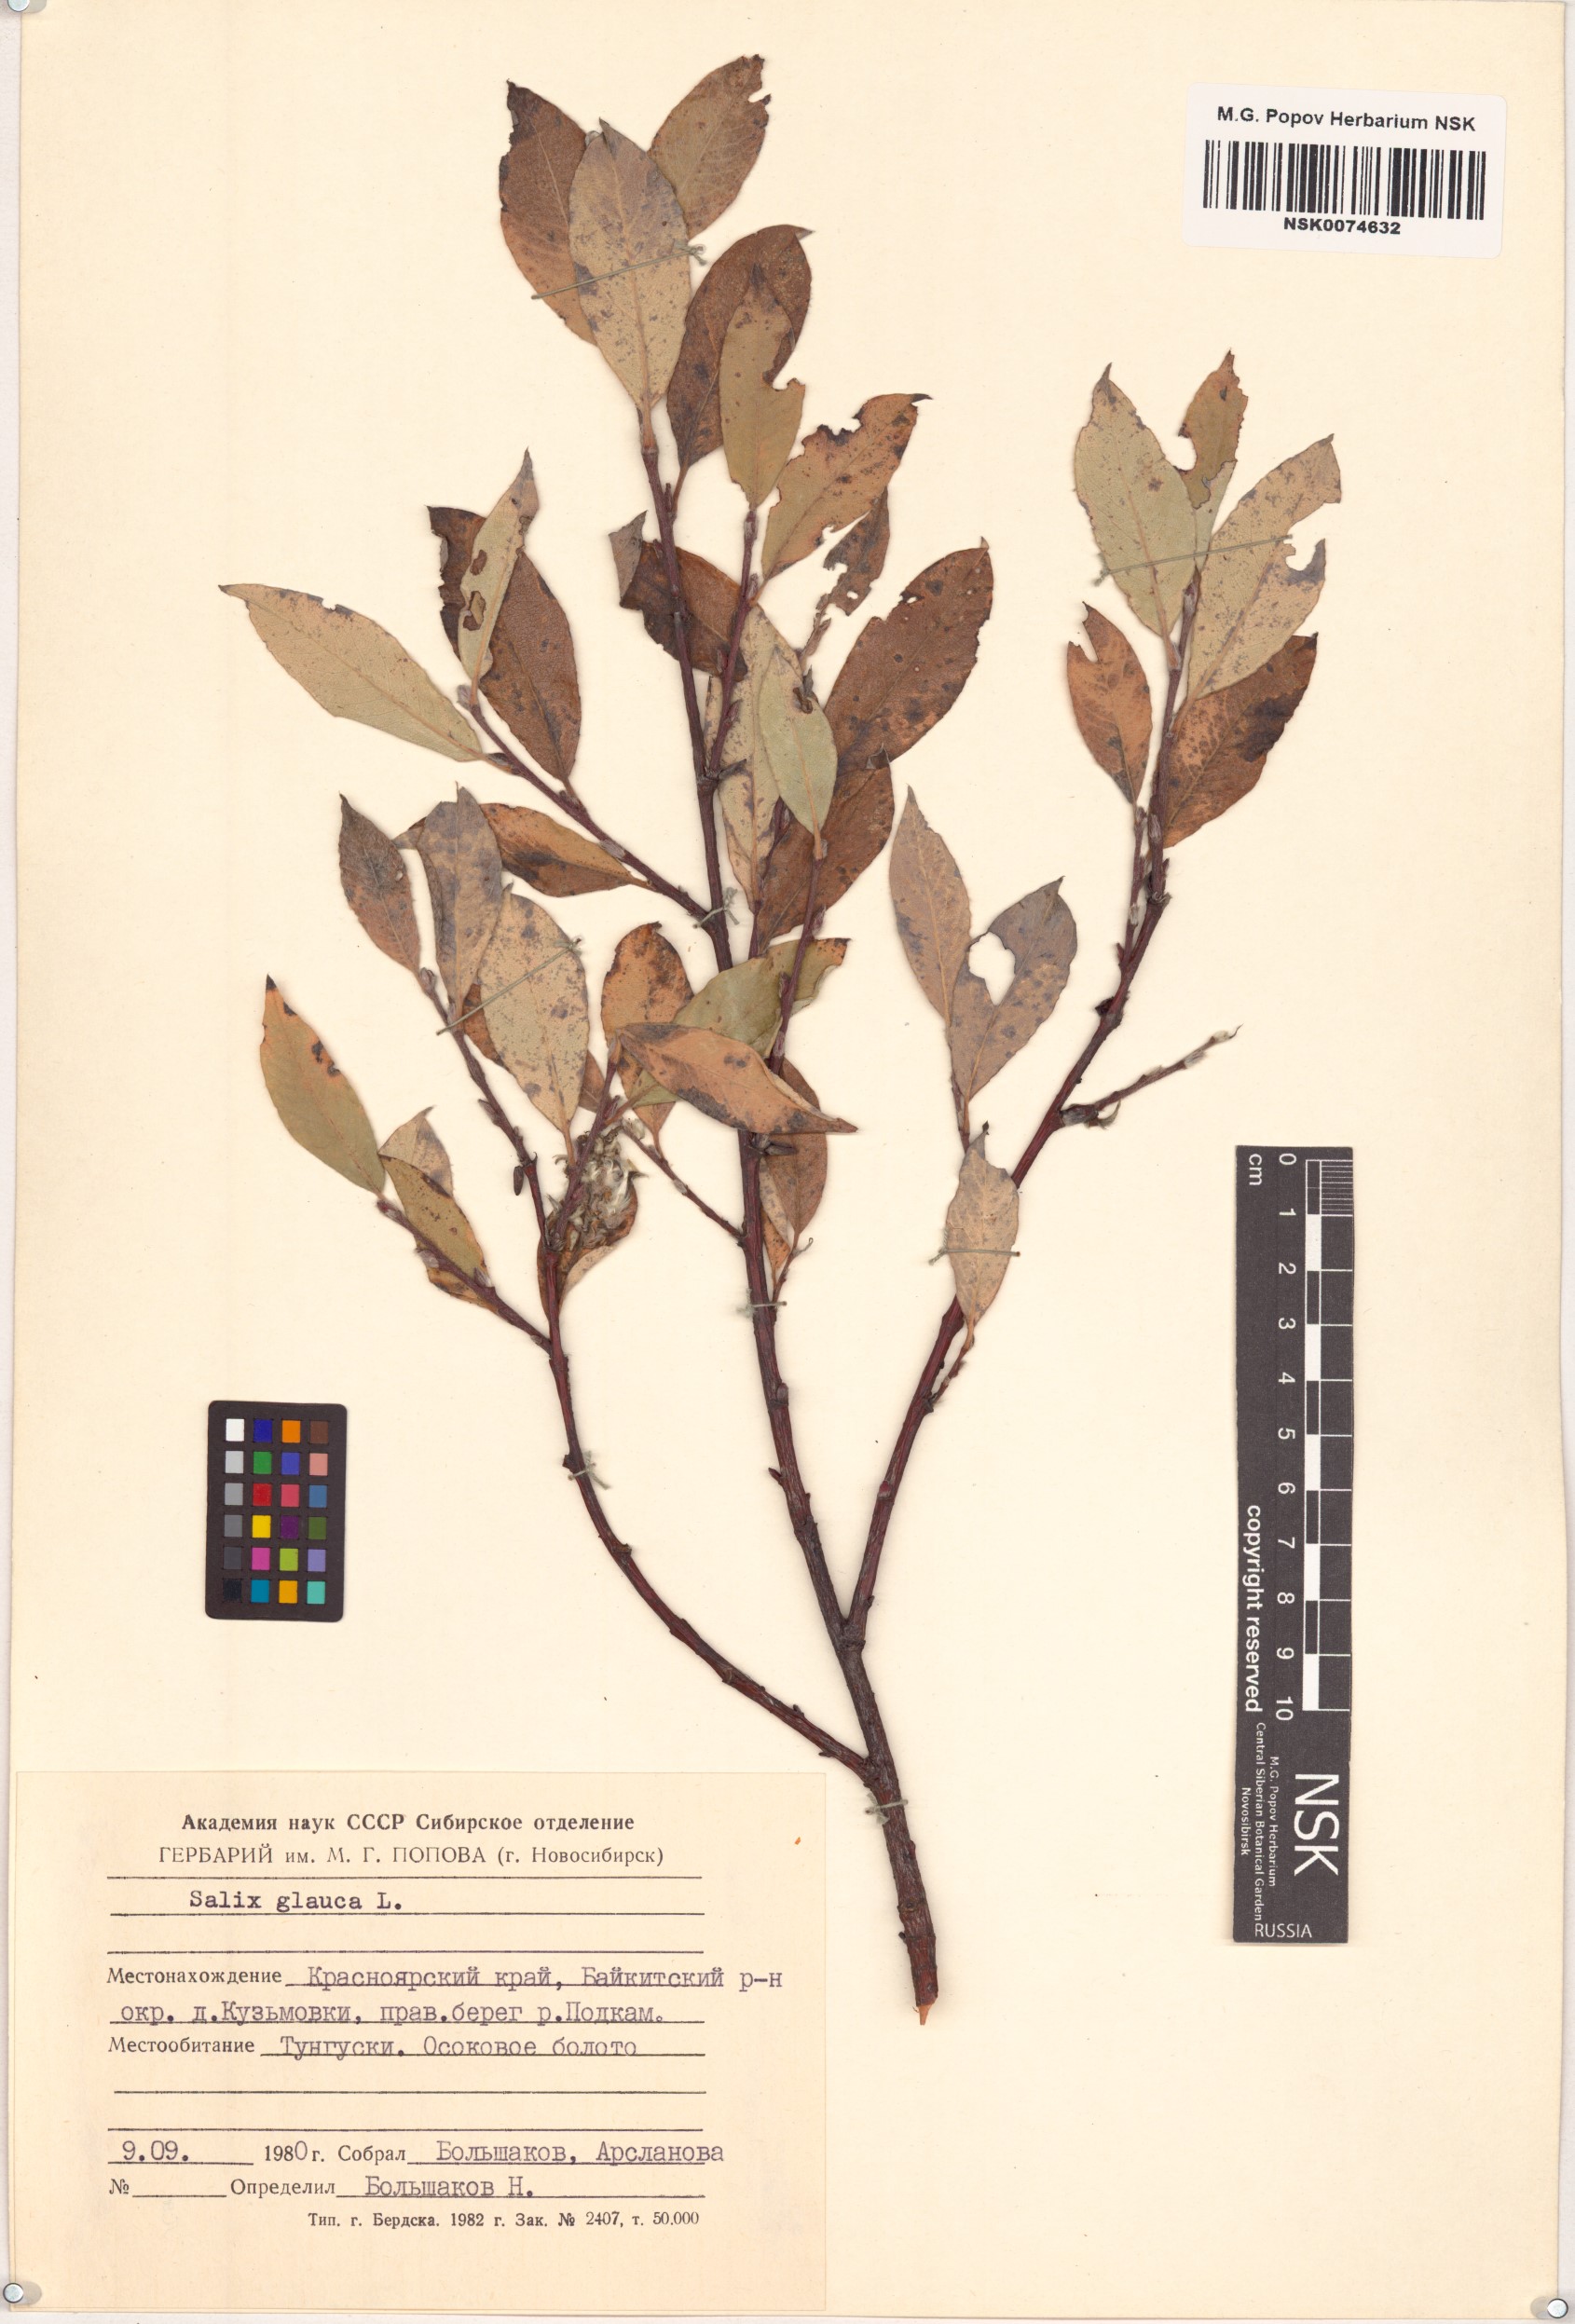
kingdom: Plantae
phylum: Tracheophyta
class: Magnoliopsida
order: Malpighiales
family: Salicaceae
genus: Salix
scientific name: Salix glauca
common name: Glaucous willow
